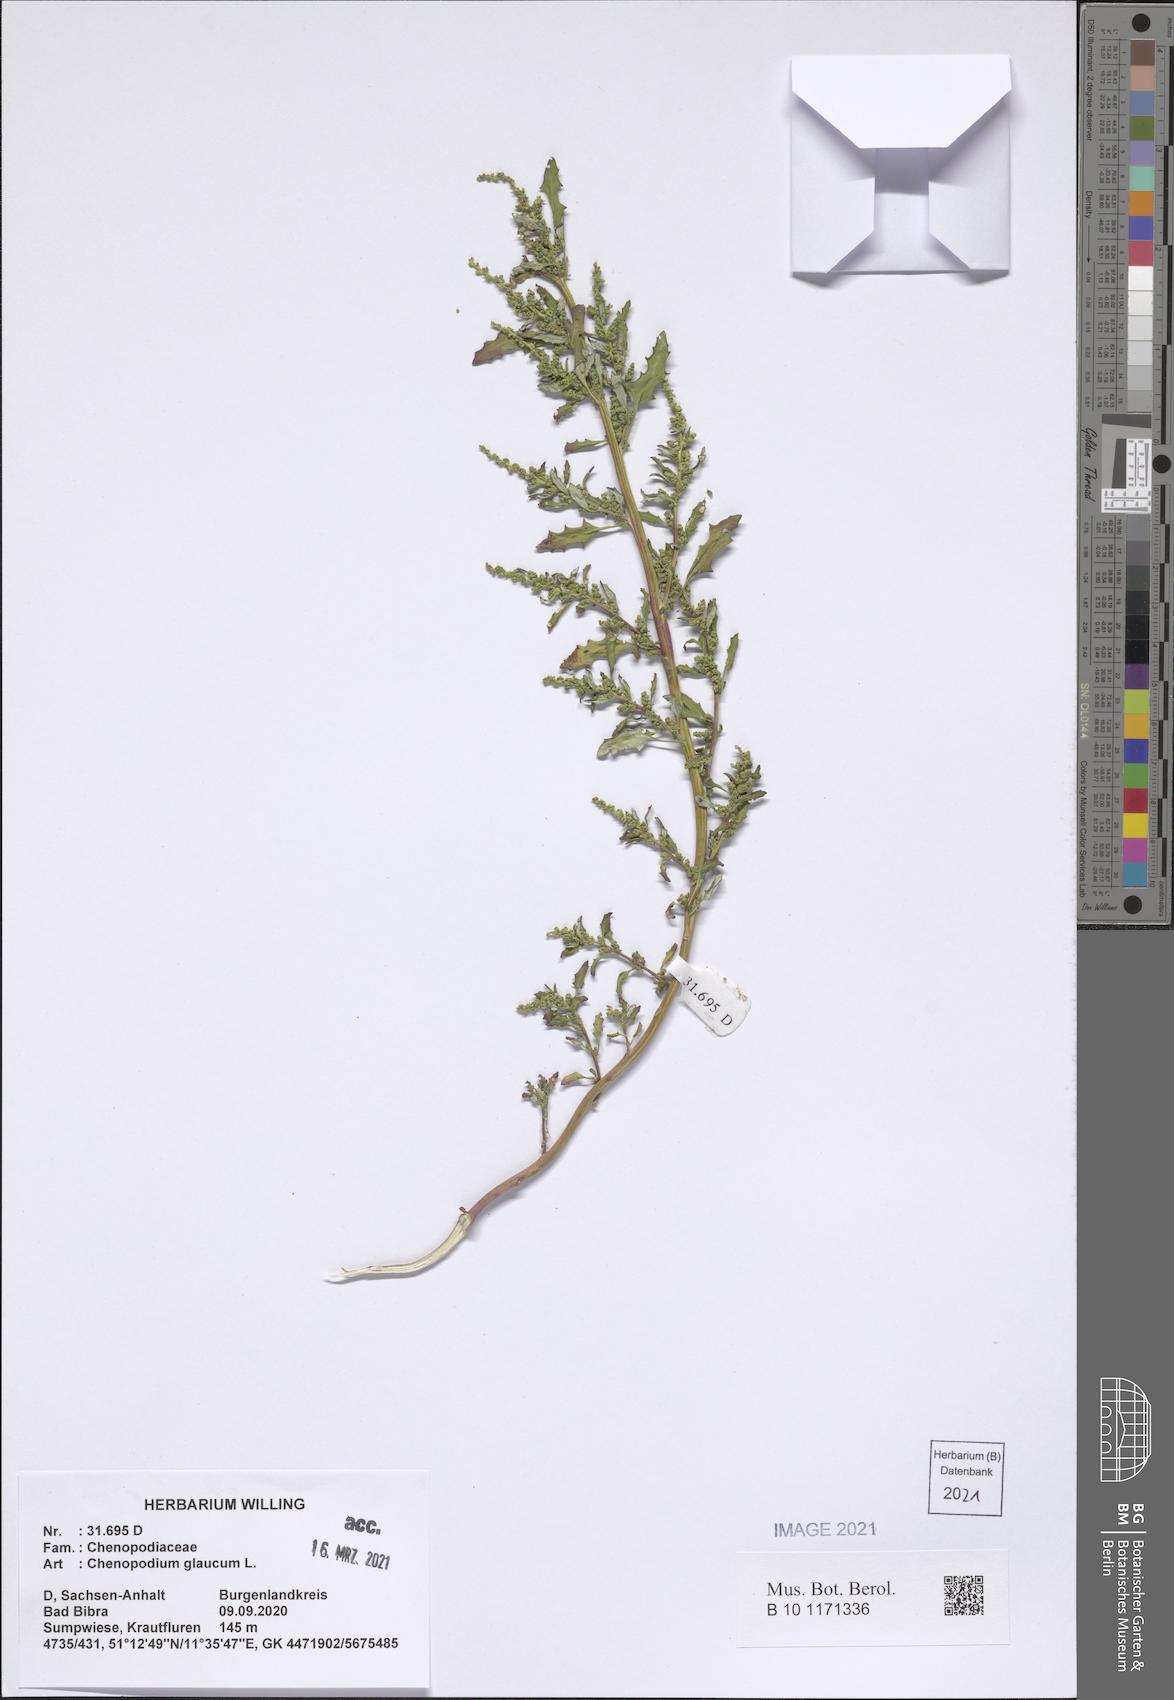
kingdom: Plantae
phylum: Tracheophyta
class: Magnoliopsida
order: Caryophyllales
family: Amaranthaceae
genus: Oxybasis
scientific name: Oxybasis glauca
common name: Glaucous goosefoot
